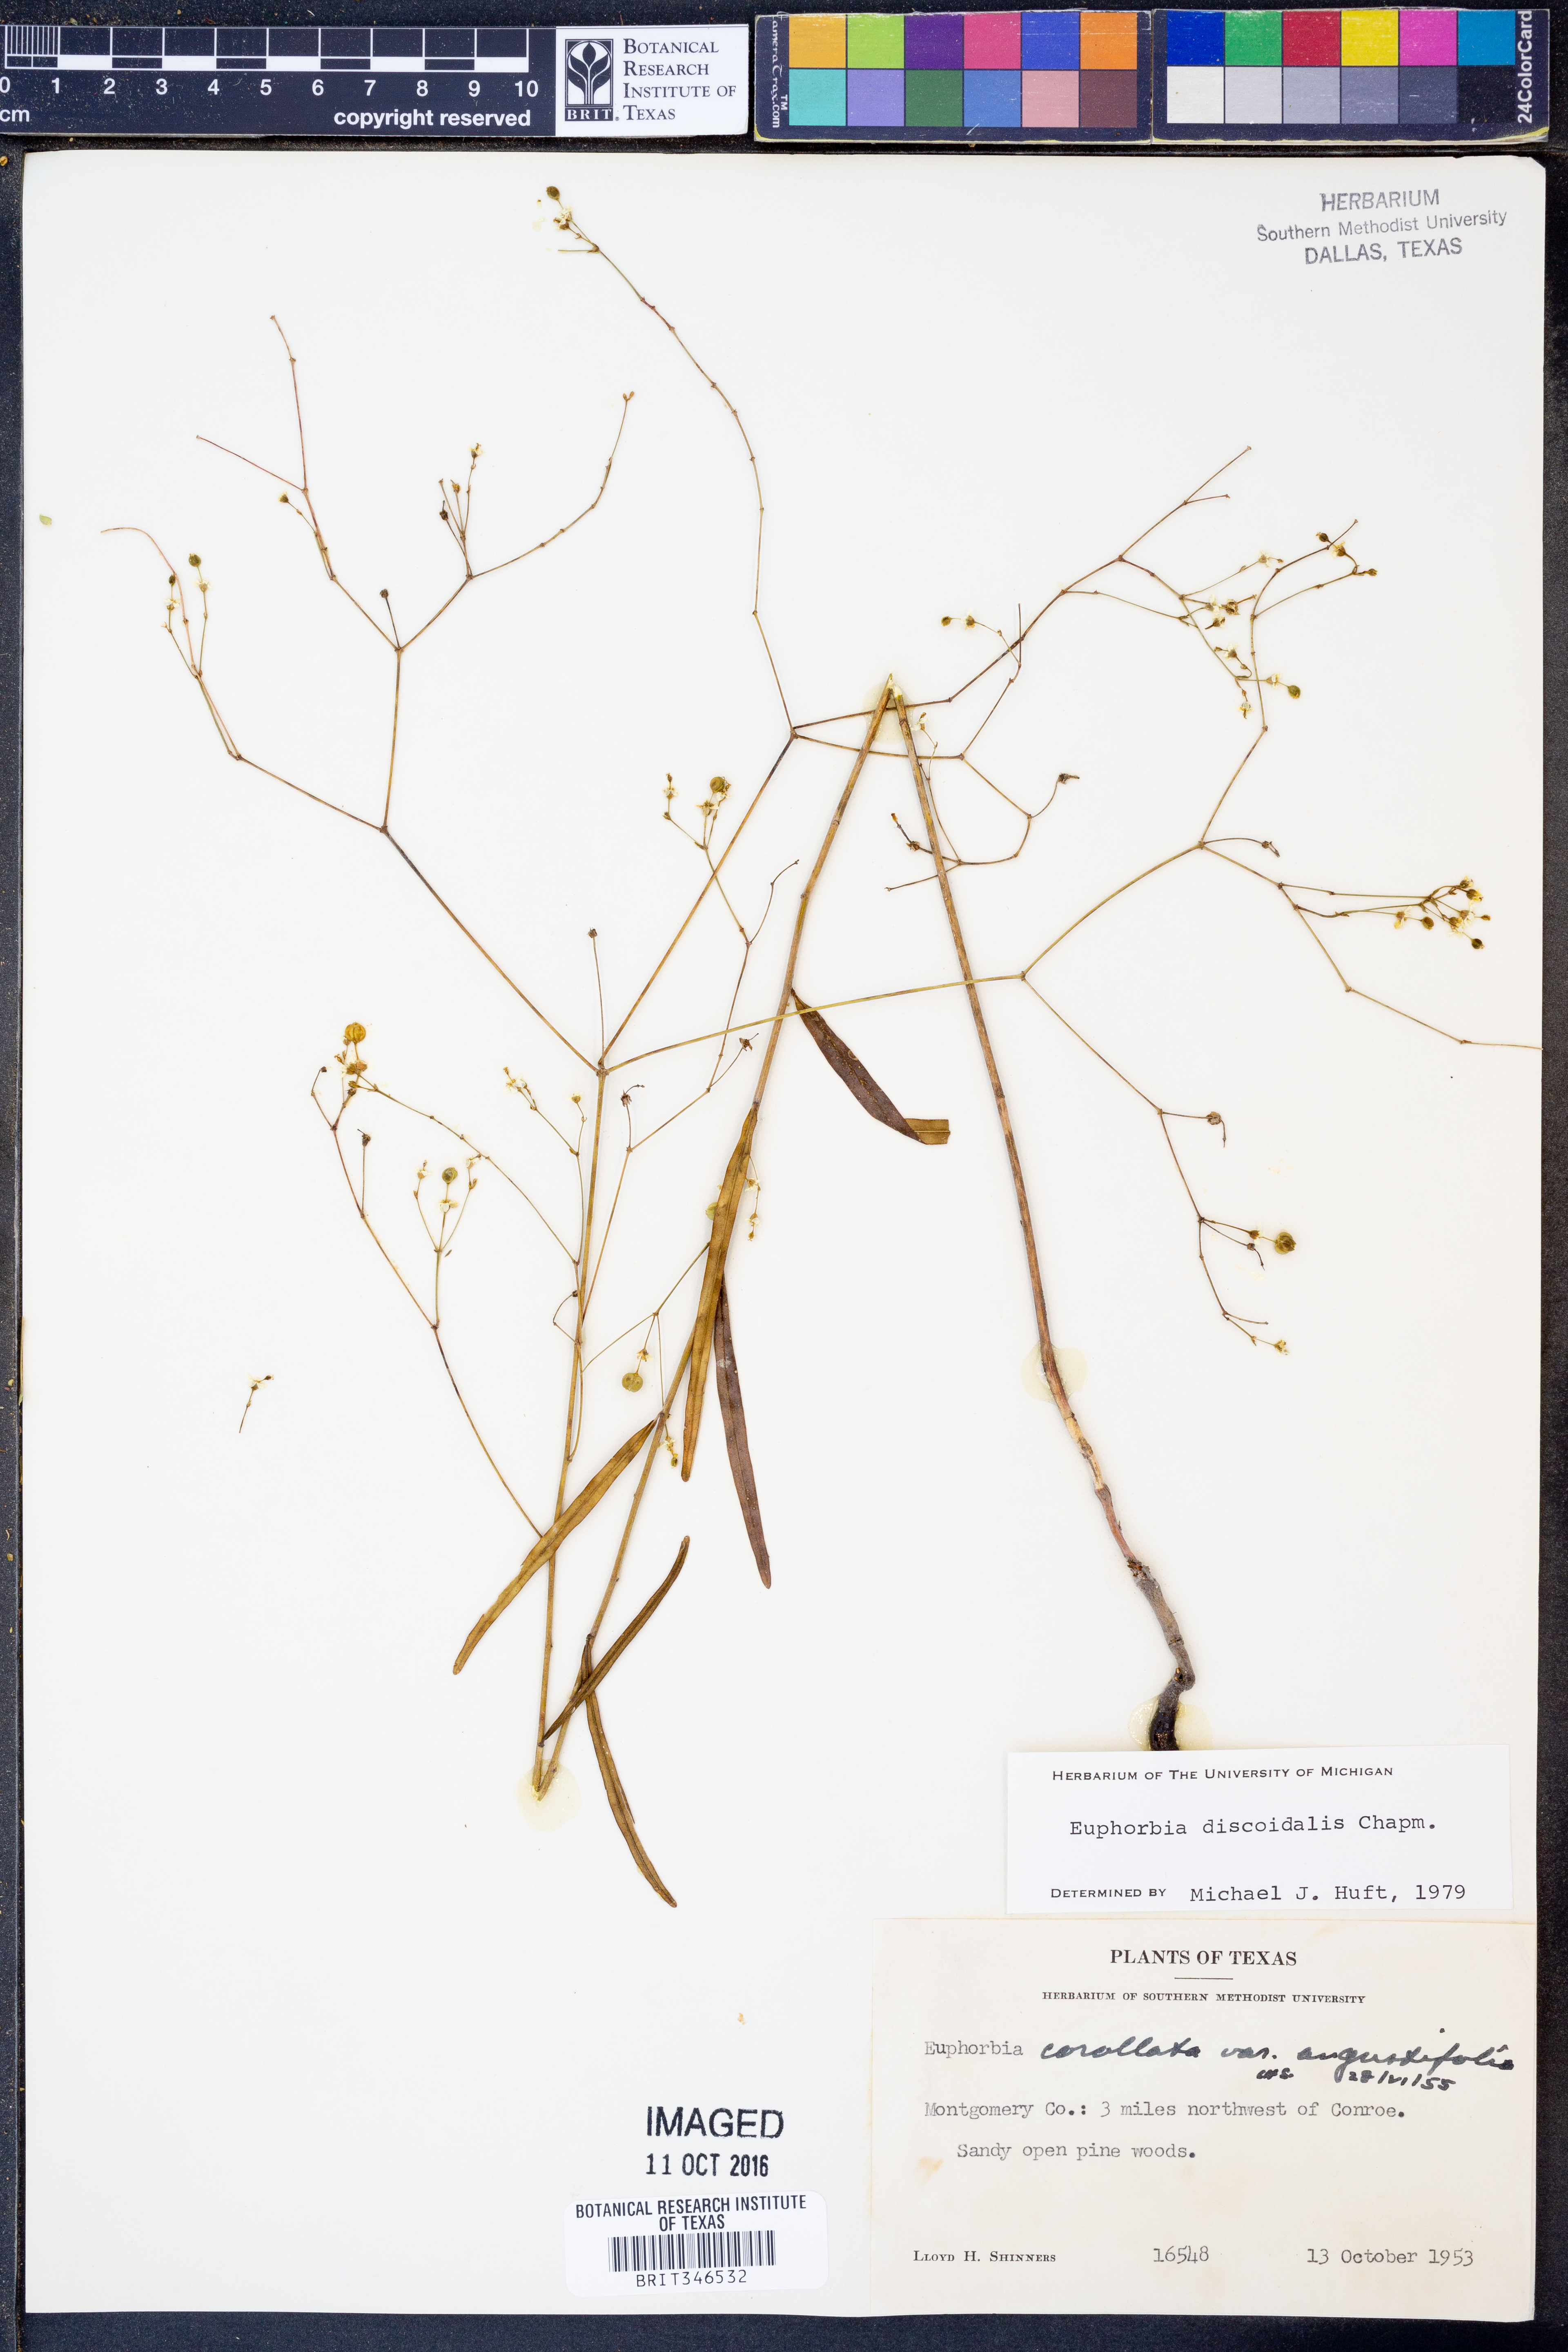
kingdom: Plantae
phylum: Tracheophyta
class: Magnoliopsida
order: Malpighiales
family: Euphorbiaceae
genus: Euphorbia
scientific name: Euphorbia discoidalis
